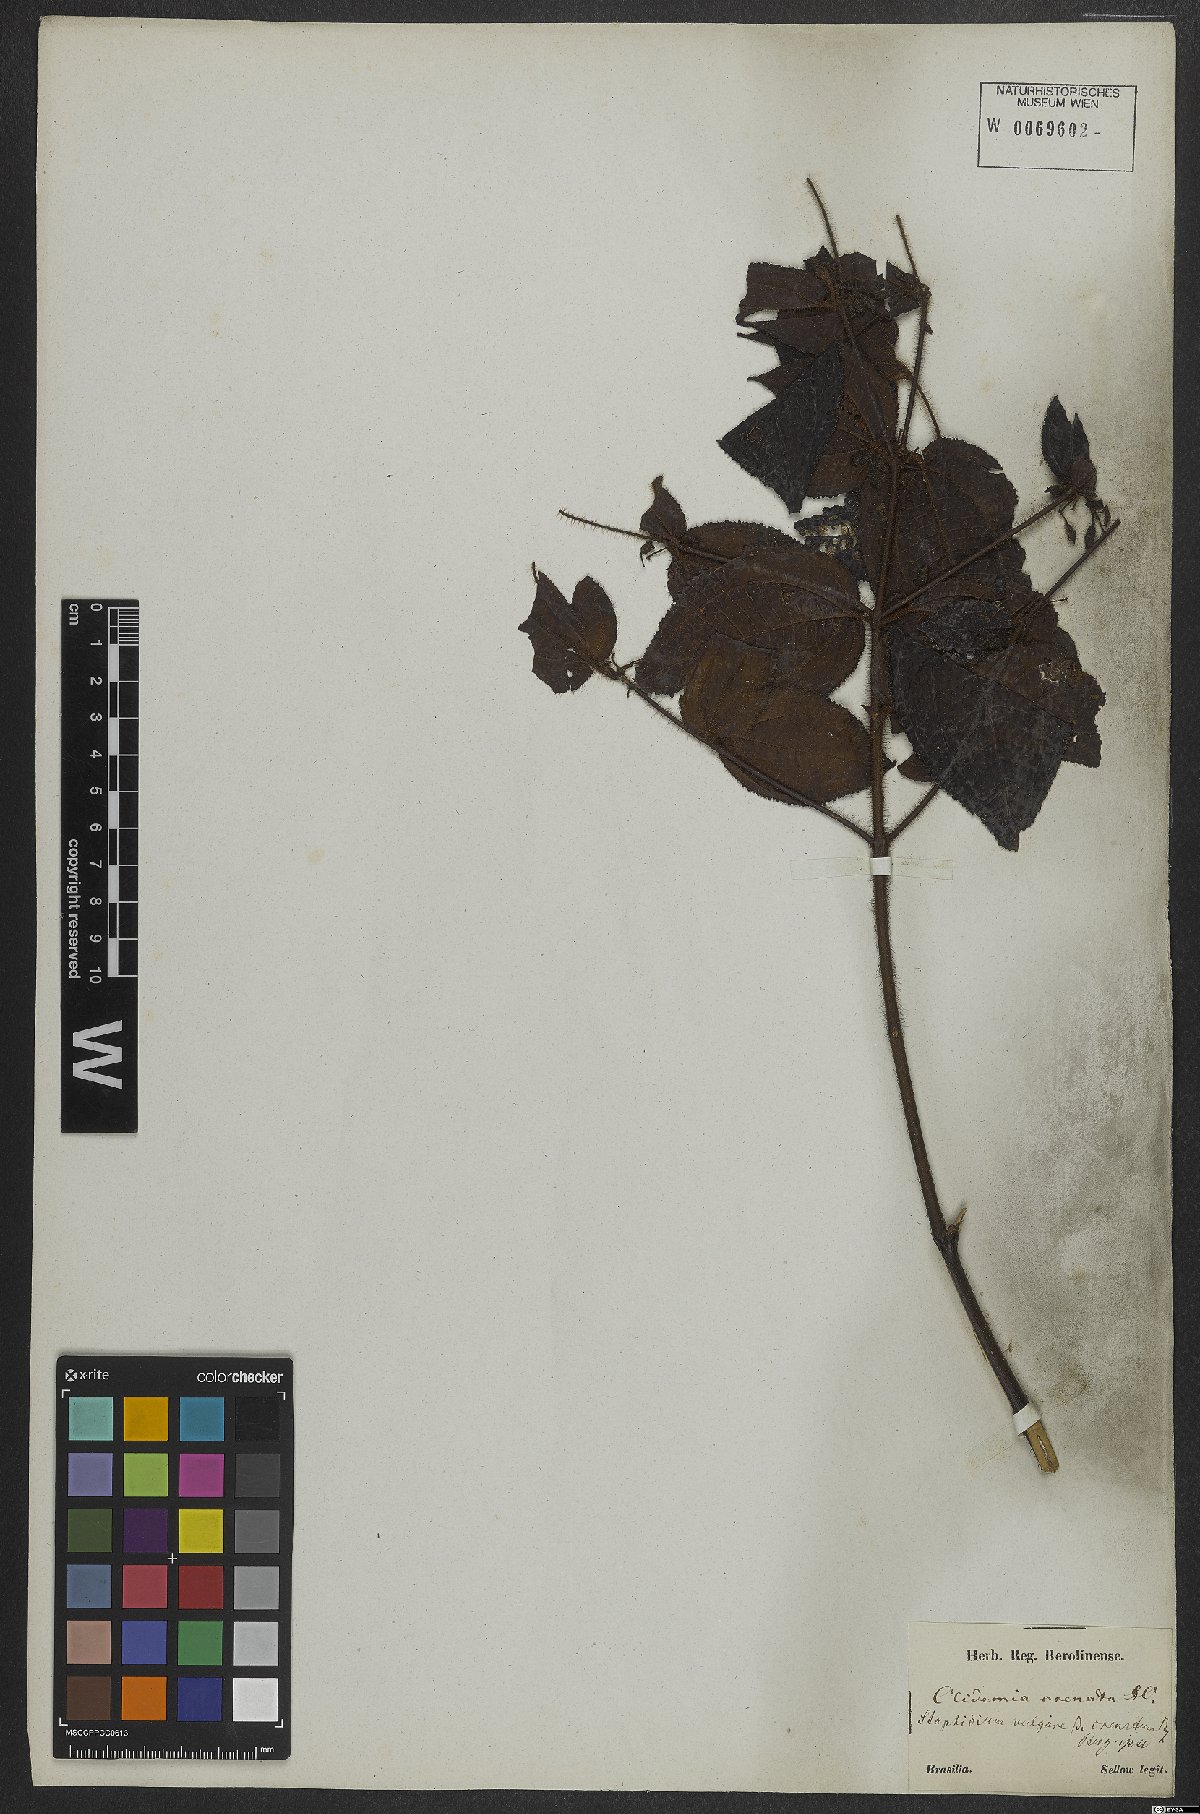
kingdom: Plantae
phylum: Tracheophyta
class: Magnoliopsida
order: Myrtales
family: Melastomataceae
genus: Miconia
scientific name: Miconia crenata
